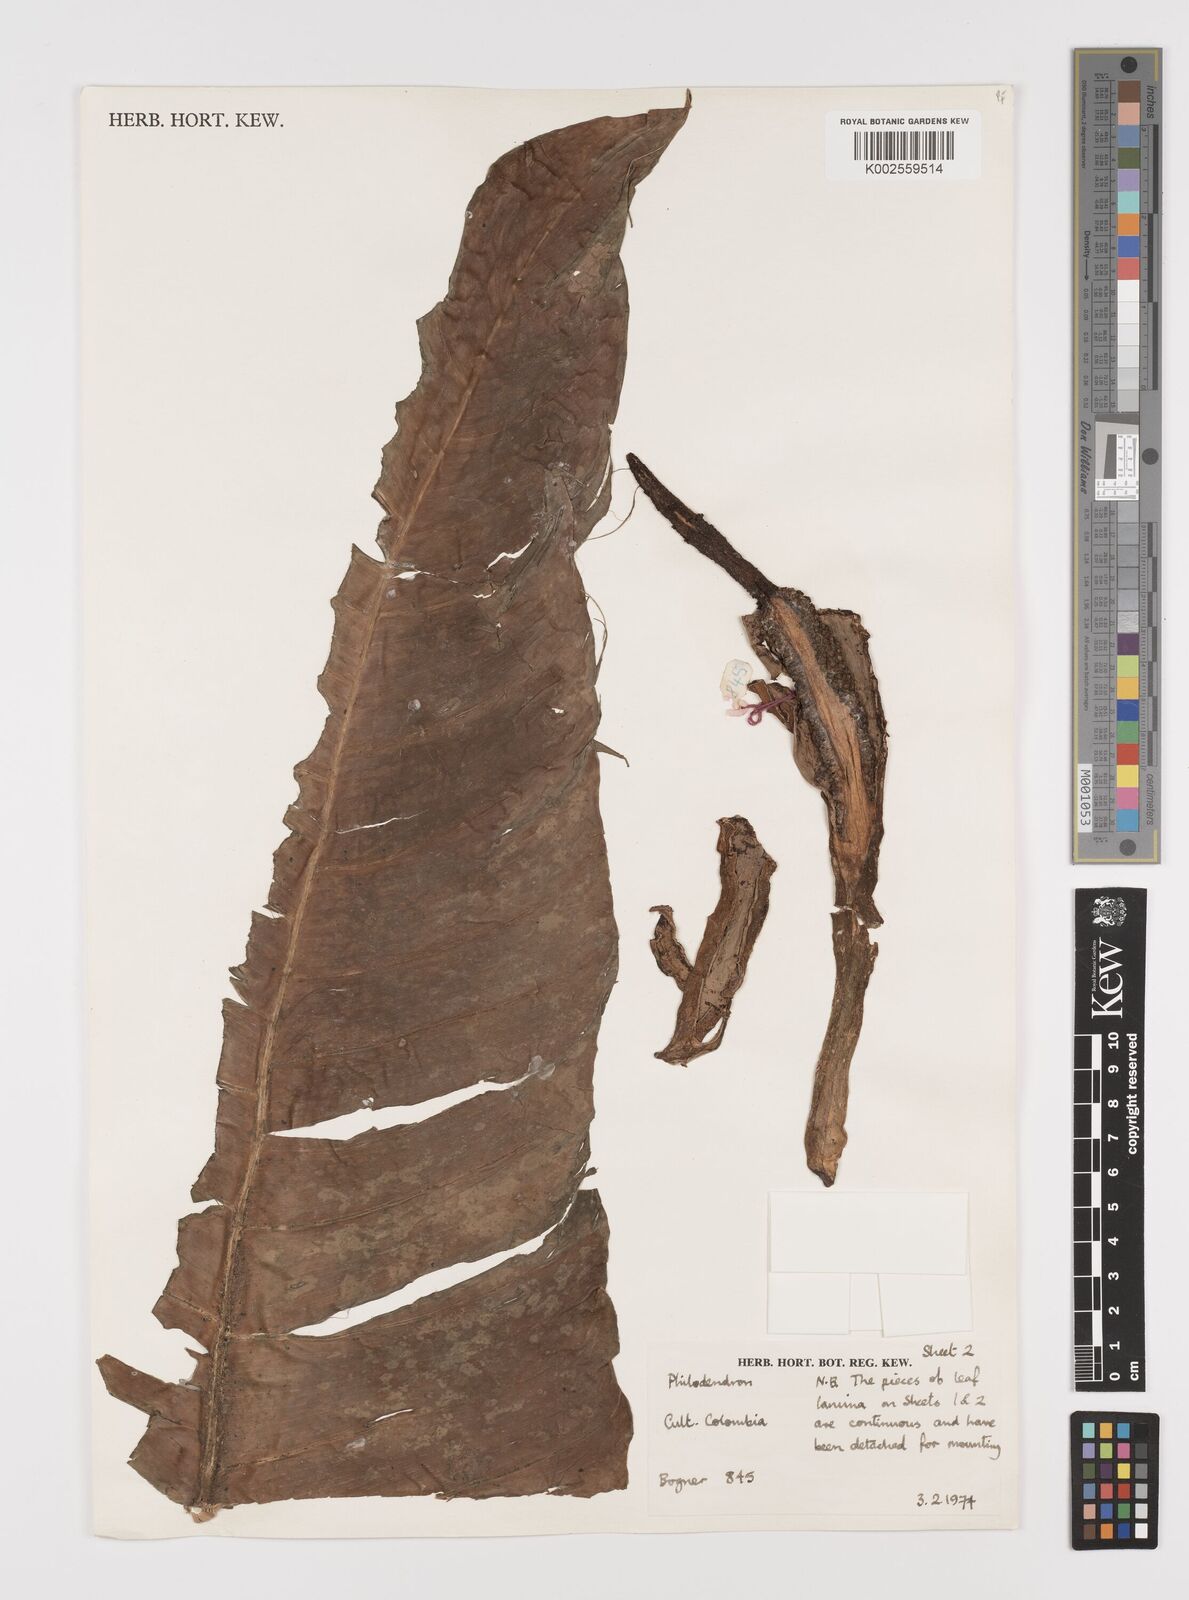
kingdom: Plantae
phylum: Tracheophyta
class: Liliopsida
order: Alismatales
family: Araceae
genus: Philodendron
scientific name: Philodendron
